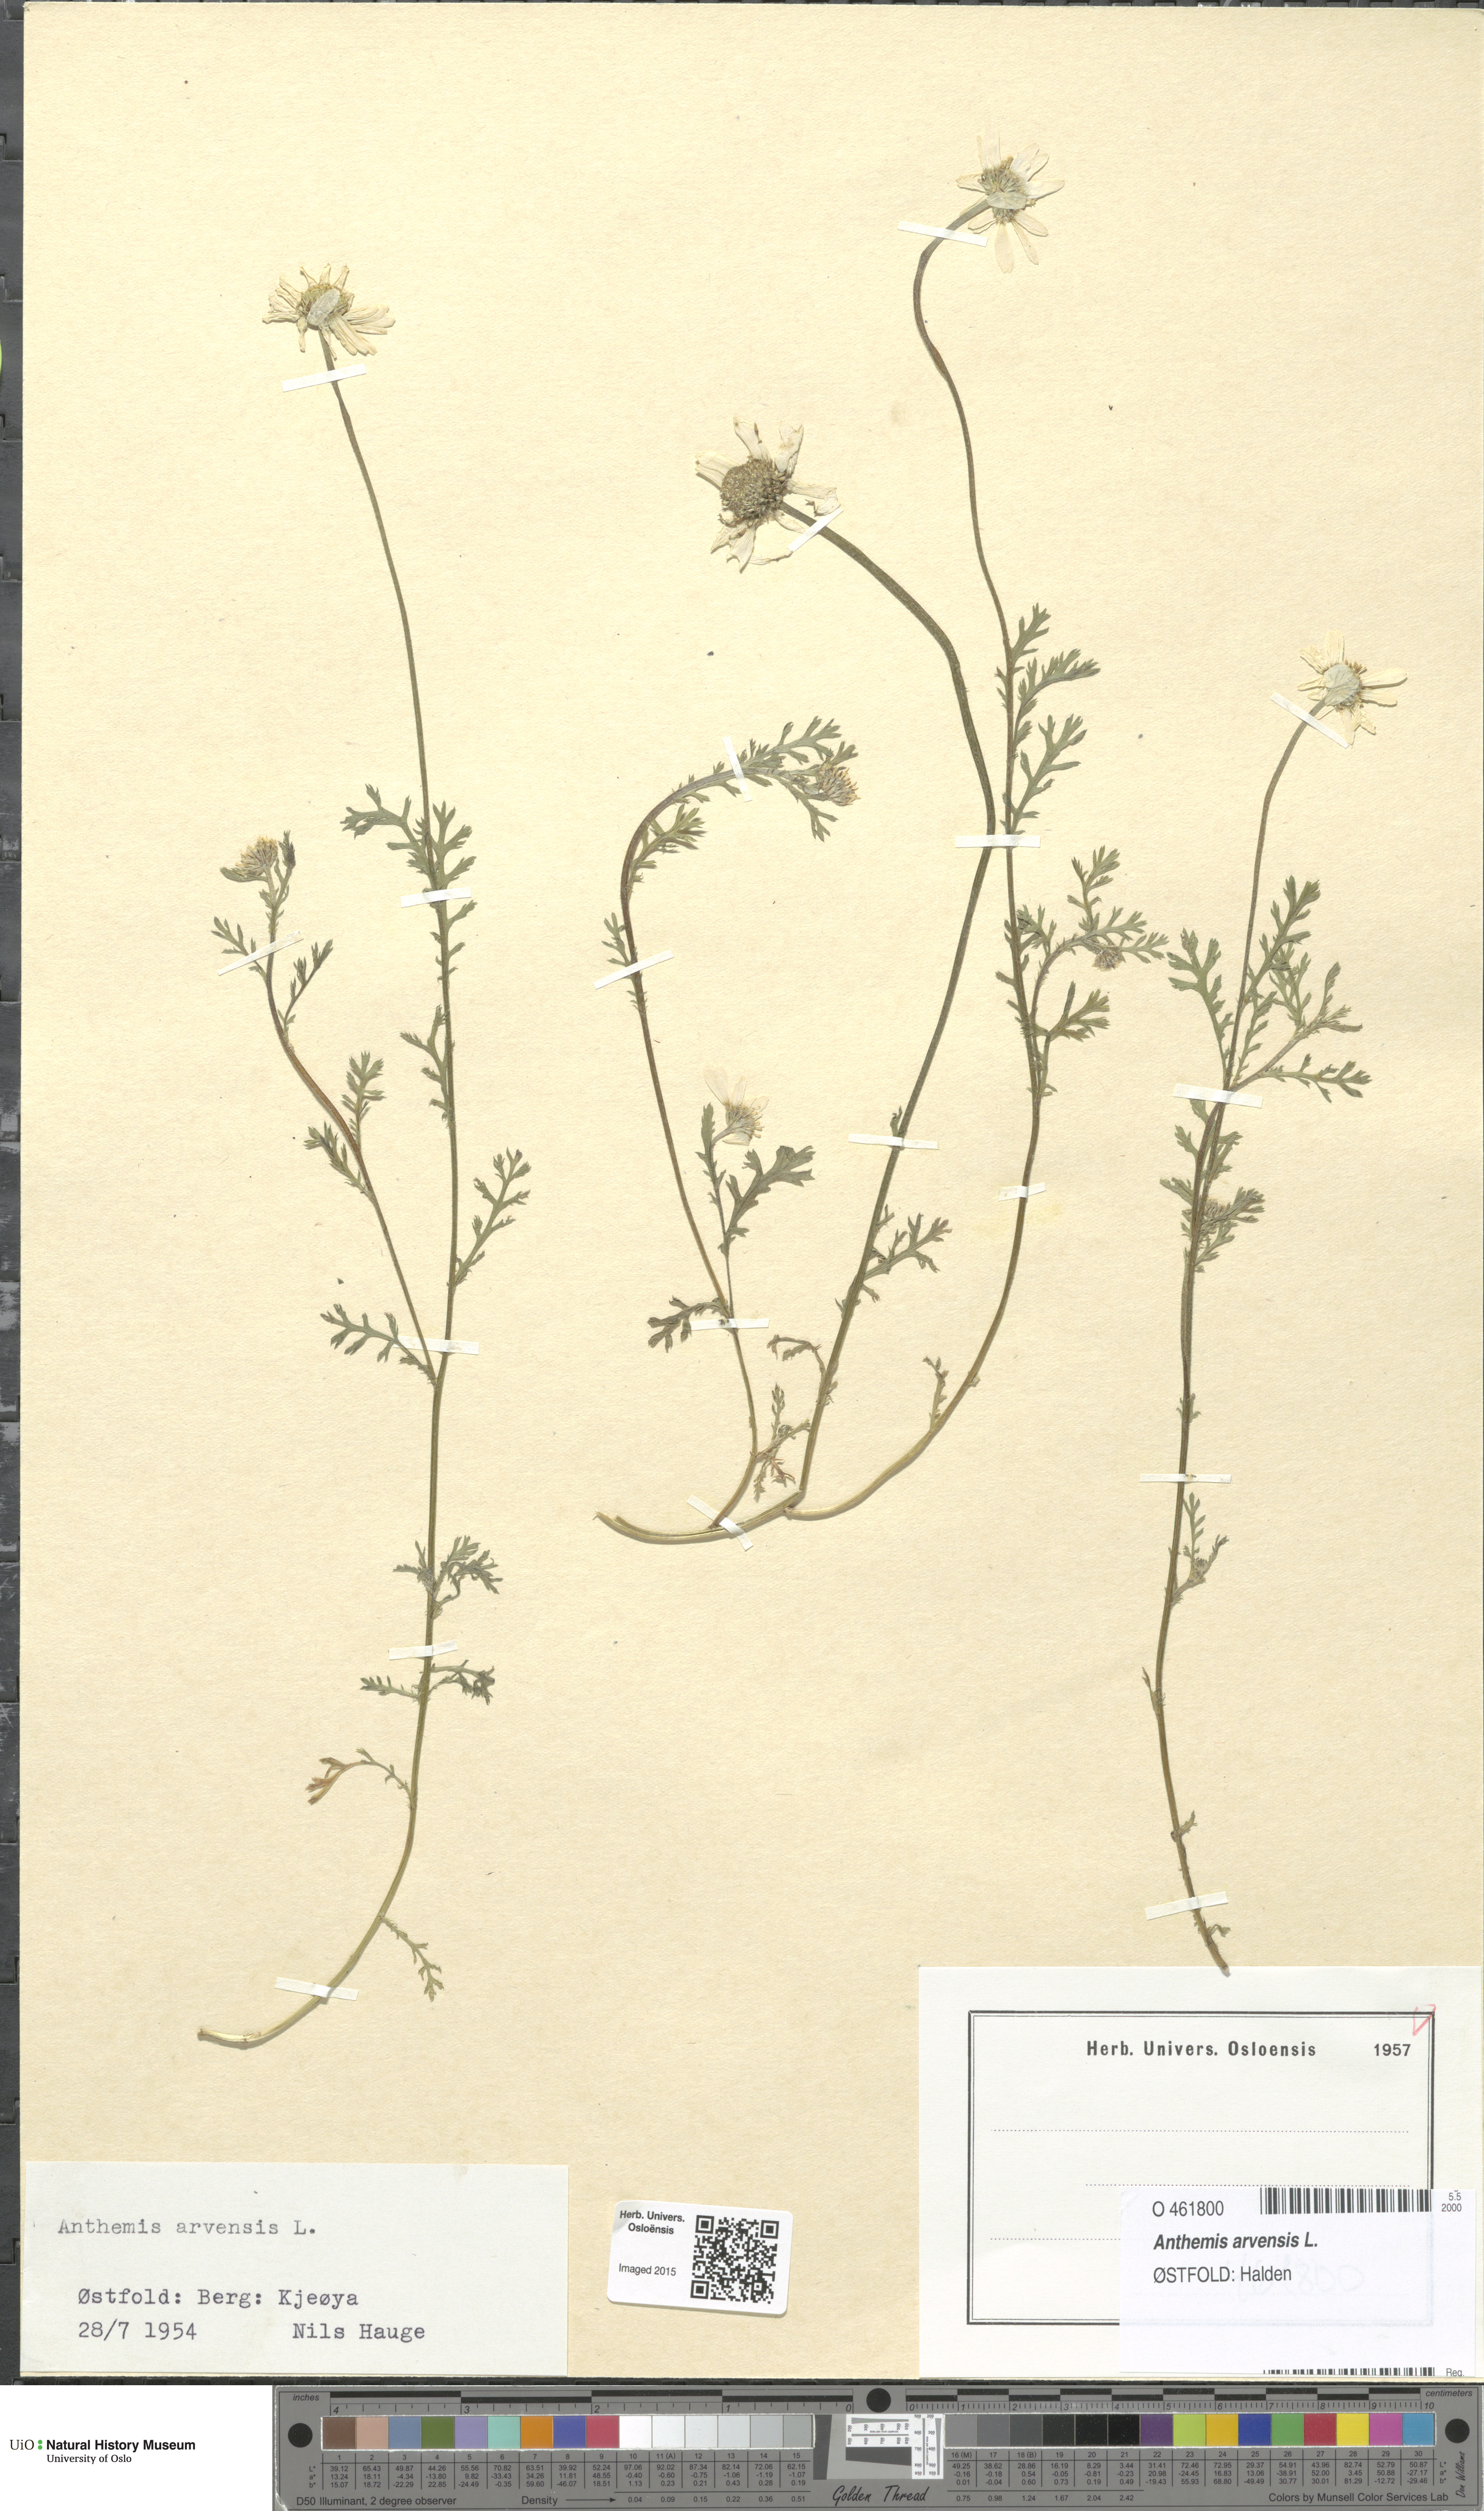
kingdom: Plantae
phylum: Tracheophyta
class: Magnoliopsida
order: Asterales
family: Asteraceae
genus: Anthemis
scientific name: Anthemis arvensis
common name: Corn chamomile
